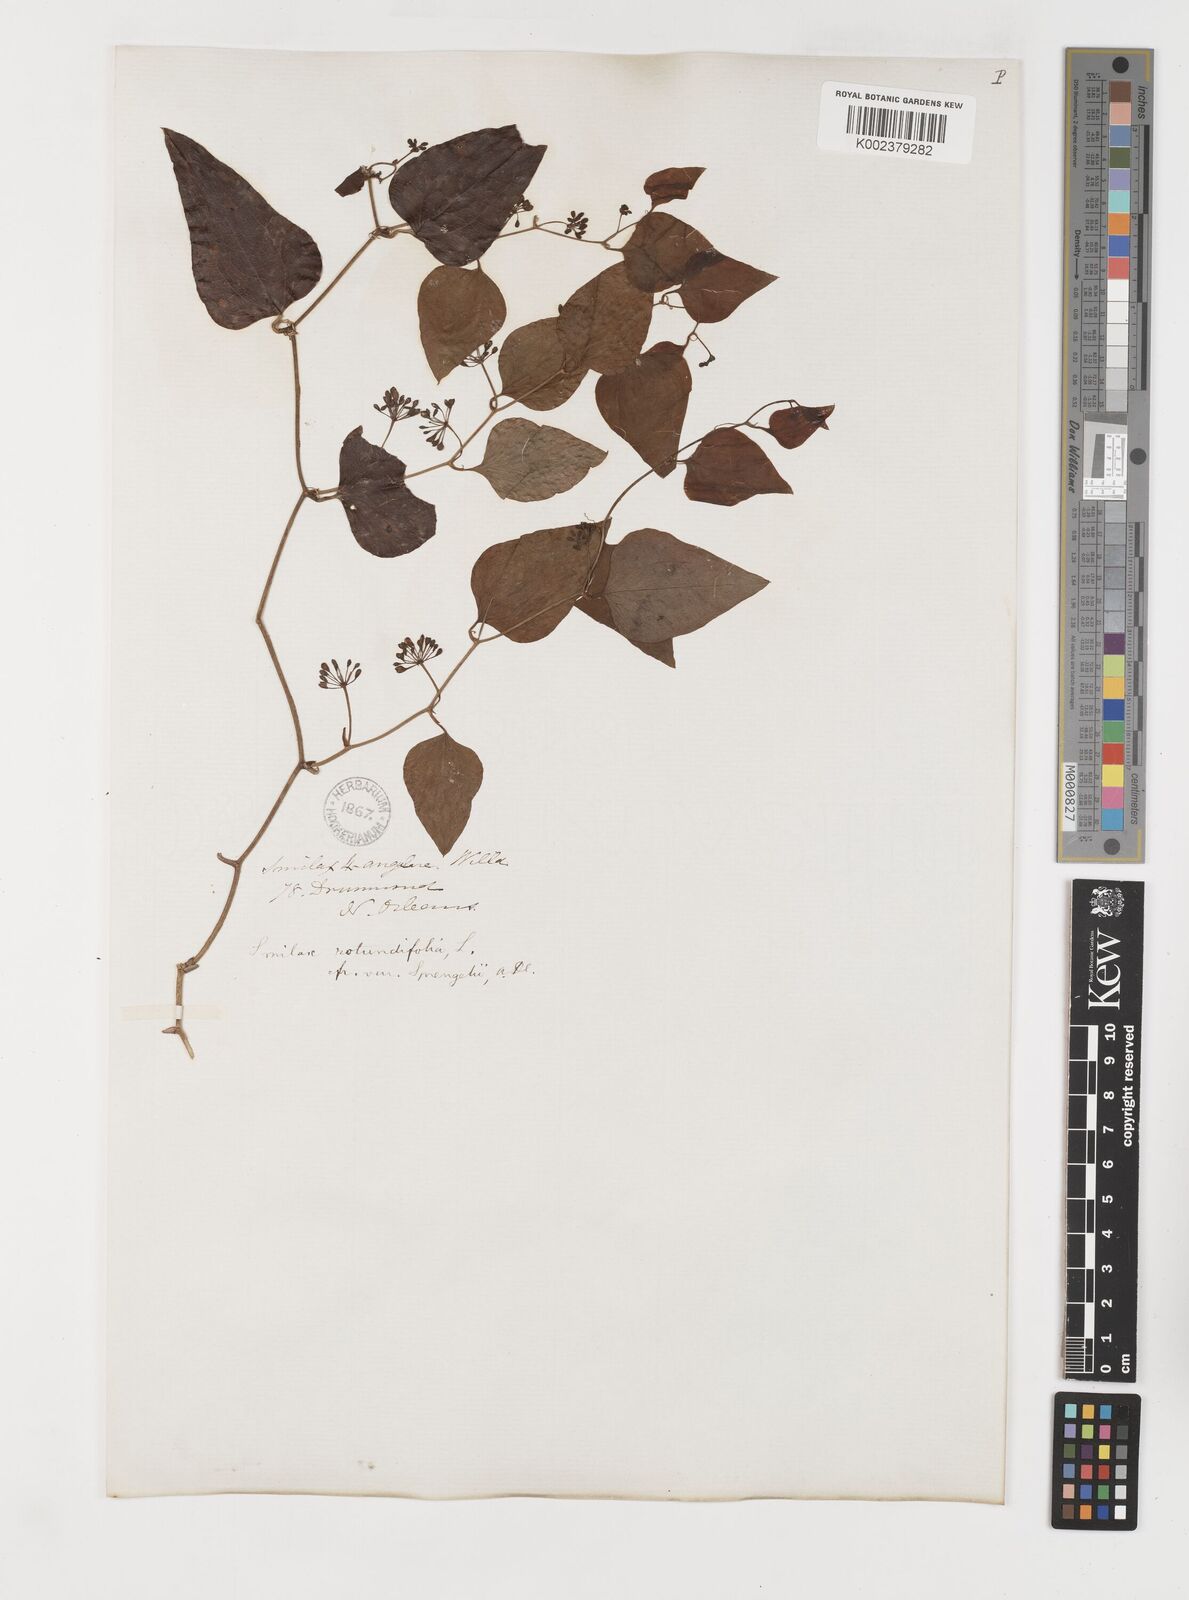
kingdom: Plantae
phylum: Tracheophyta
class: Liliopsida
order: Liliales
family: Smilacaceae
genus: Smilax
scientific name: Smilax rotundifolia
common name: Bullbriar
